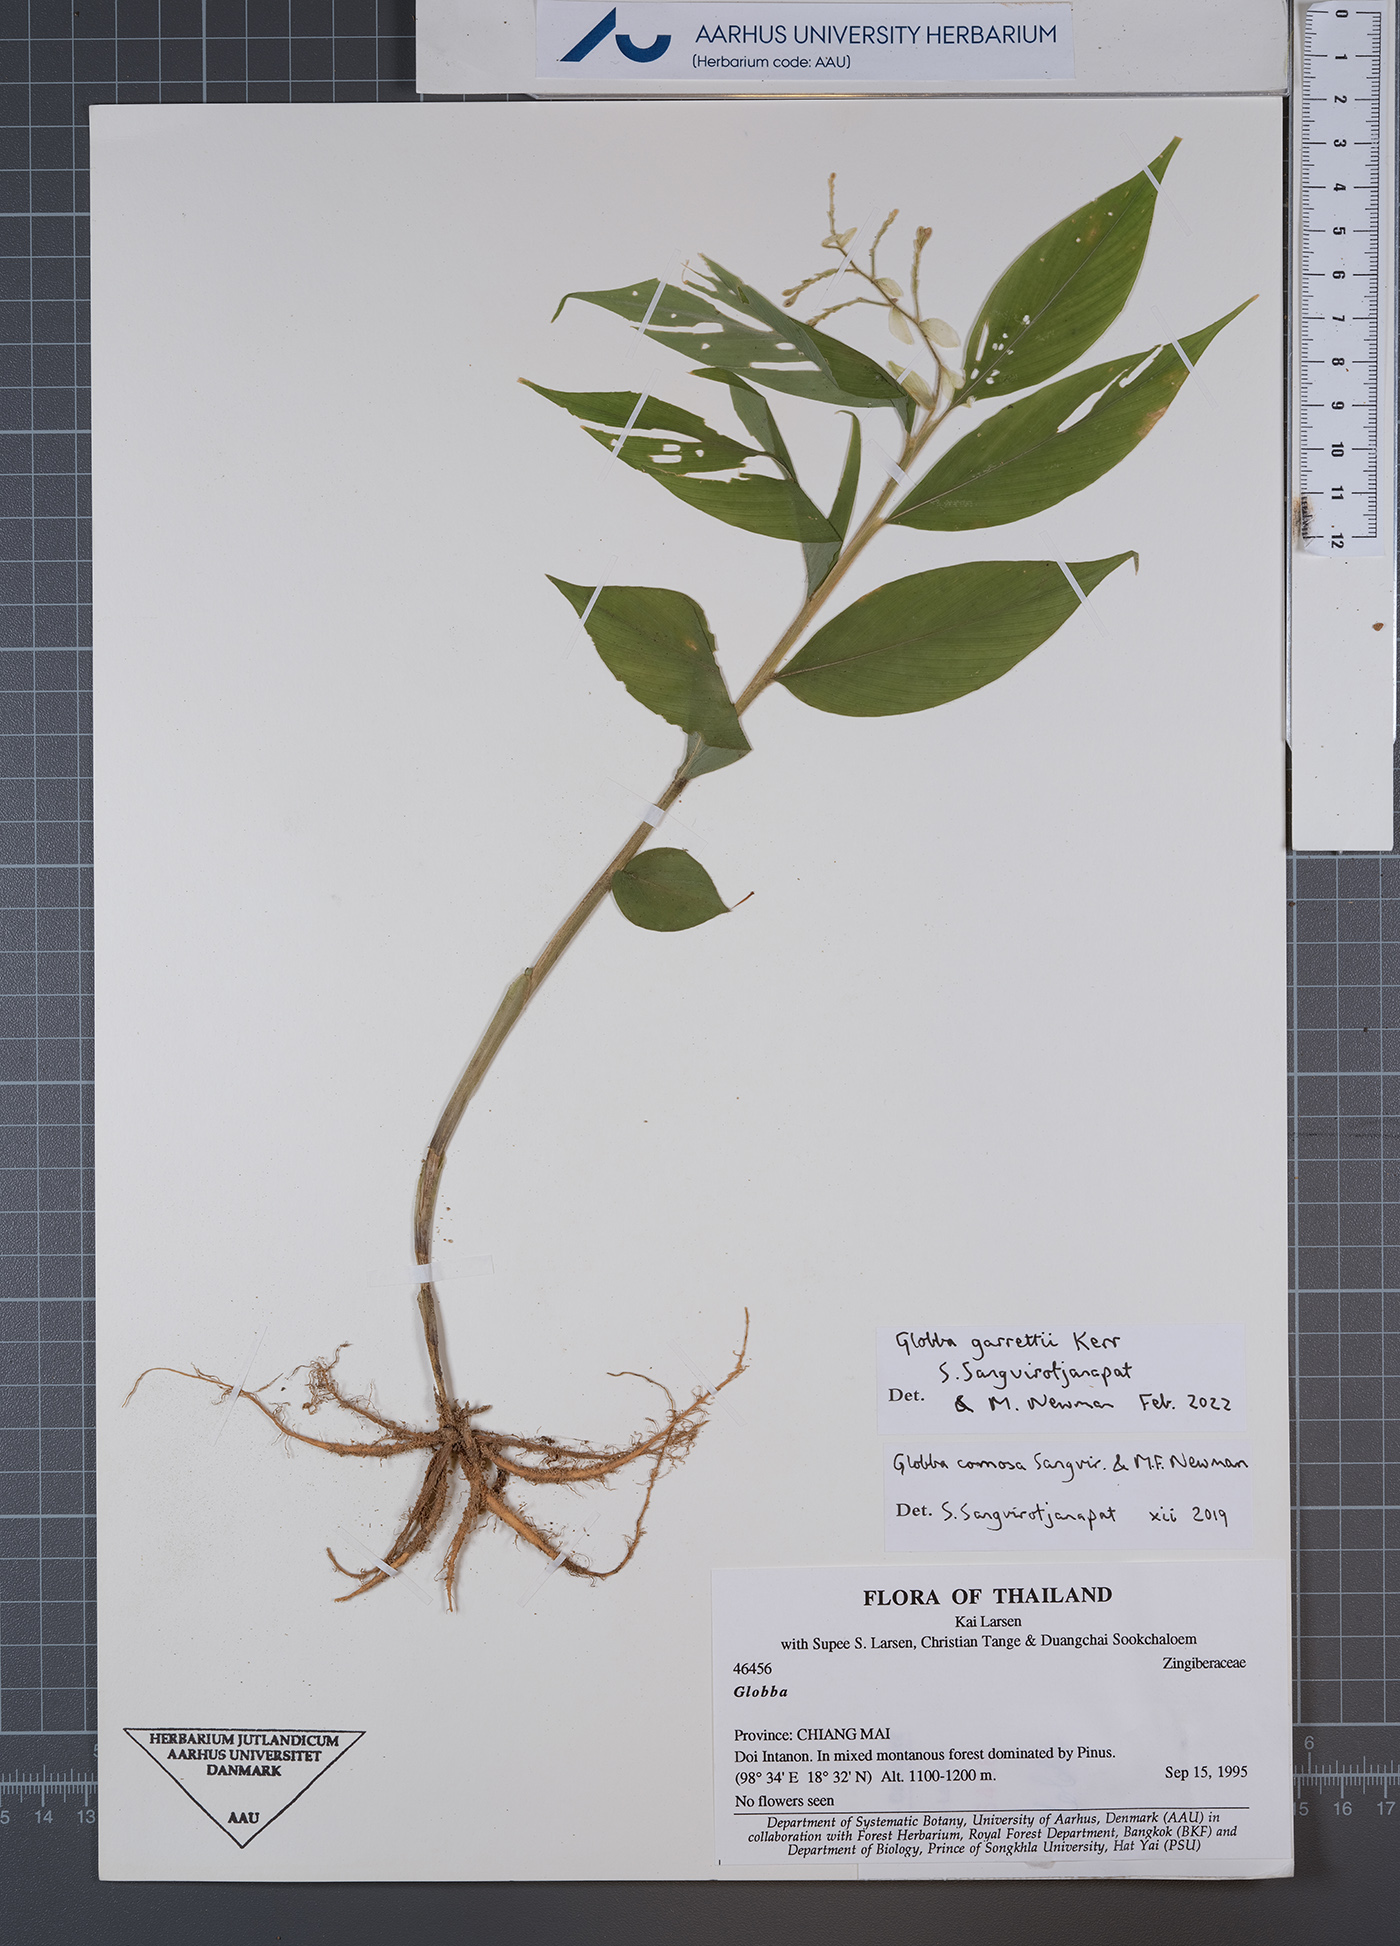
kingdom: Plantae
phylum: Tracheophyta
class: Liliopsida
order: Zingiberales
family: Zingiberaceae
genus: Globba
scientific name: Globba garrettii
